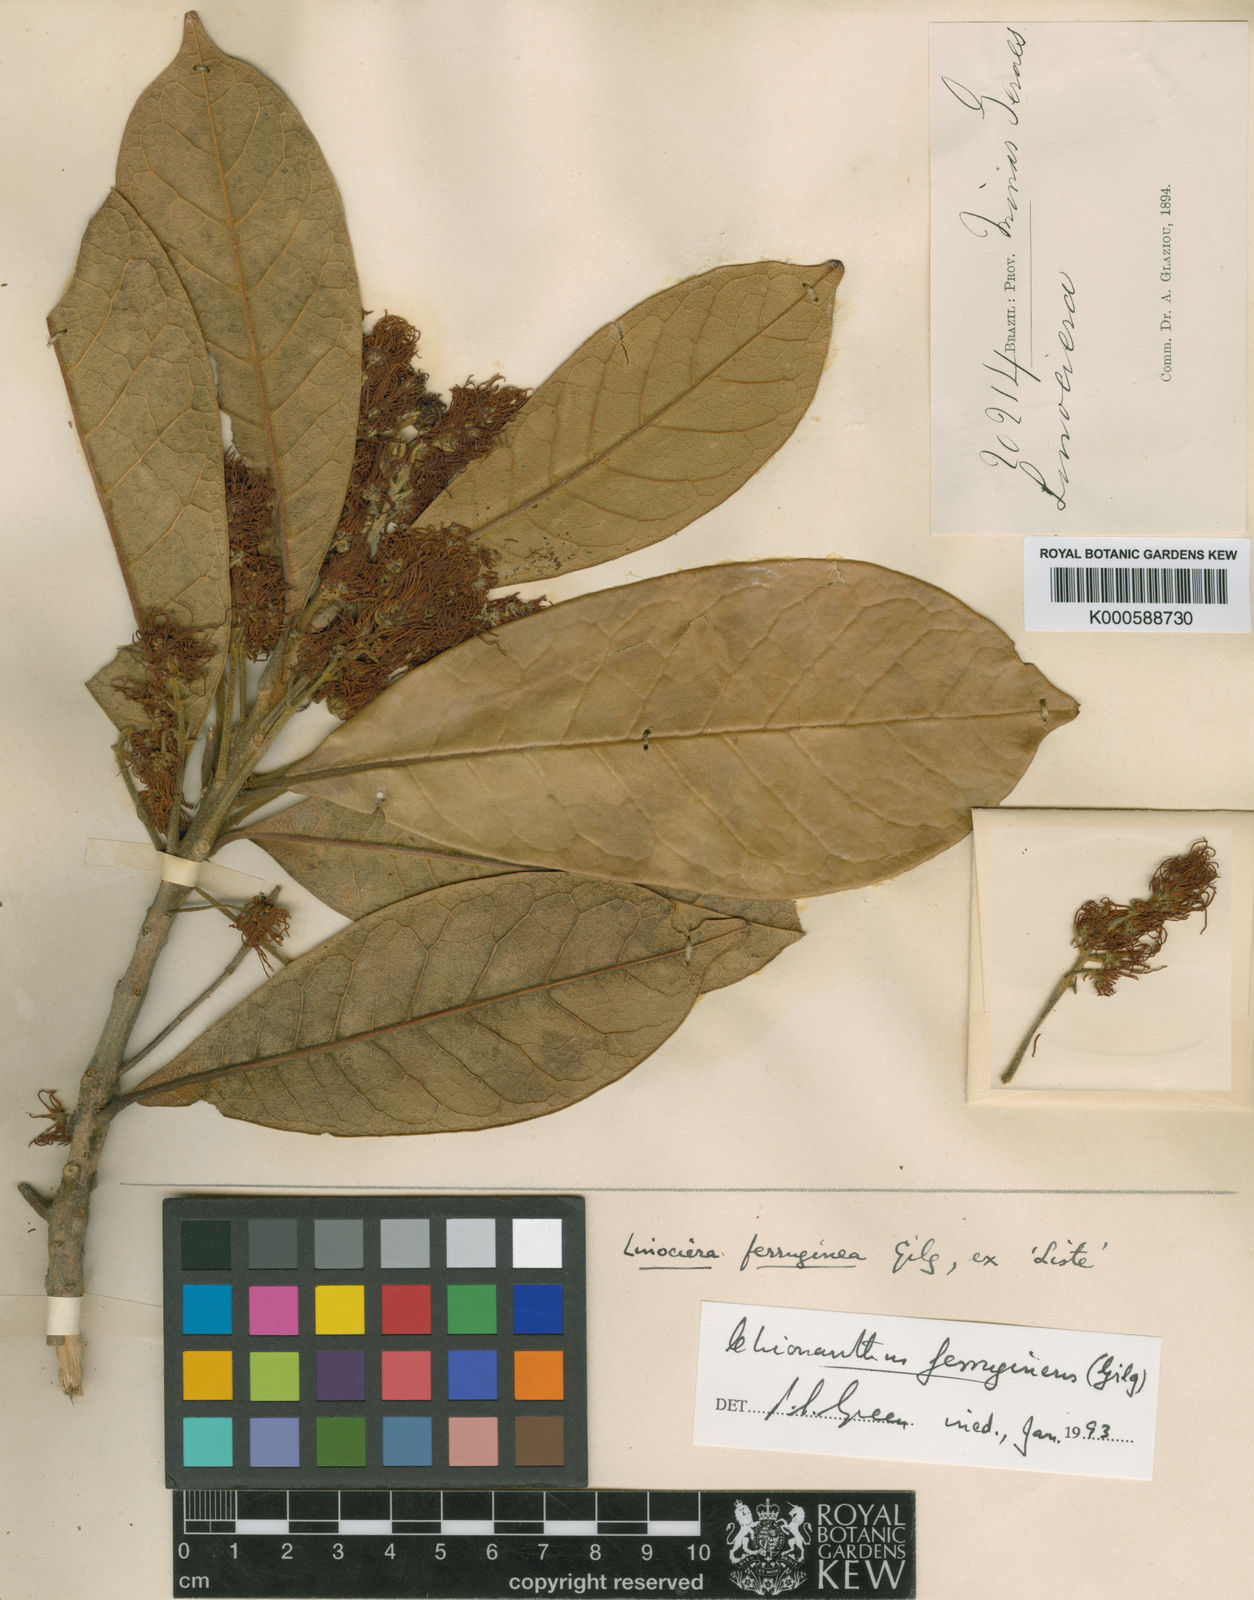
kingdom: Plantae
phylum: Tracheophyta
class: Magnoliopsida
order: Lamiales
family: Oleaceae
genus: Chionanthus
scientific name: Chionanthus ferrugineus
